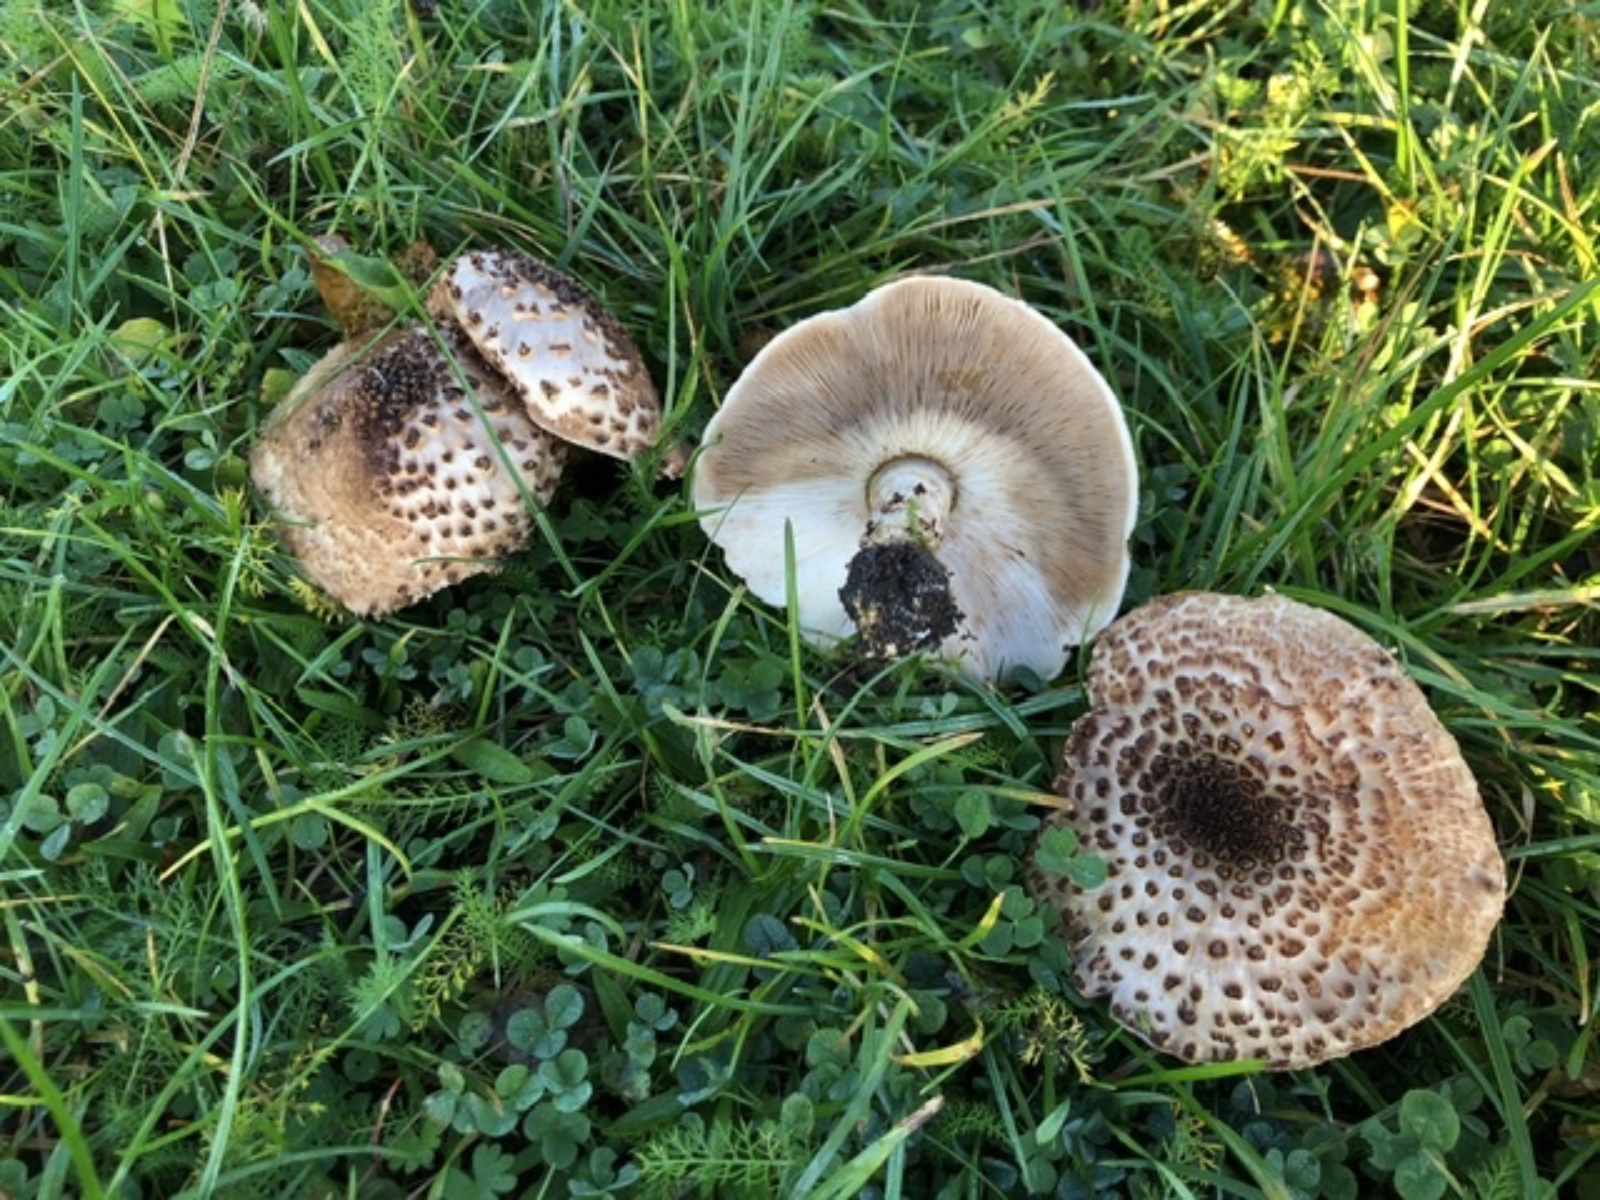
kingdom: Fungi
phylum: Basidiomycota
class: Agaricomycetes
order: Agaricales
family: Agaricaceae
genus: Echinoderma
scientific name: Echinoderma asperum
